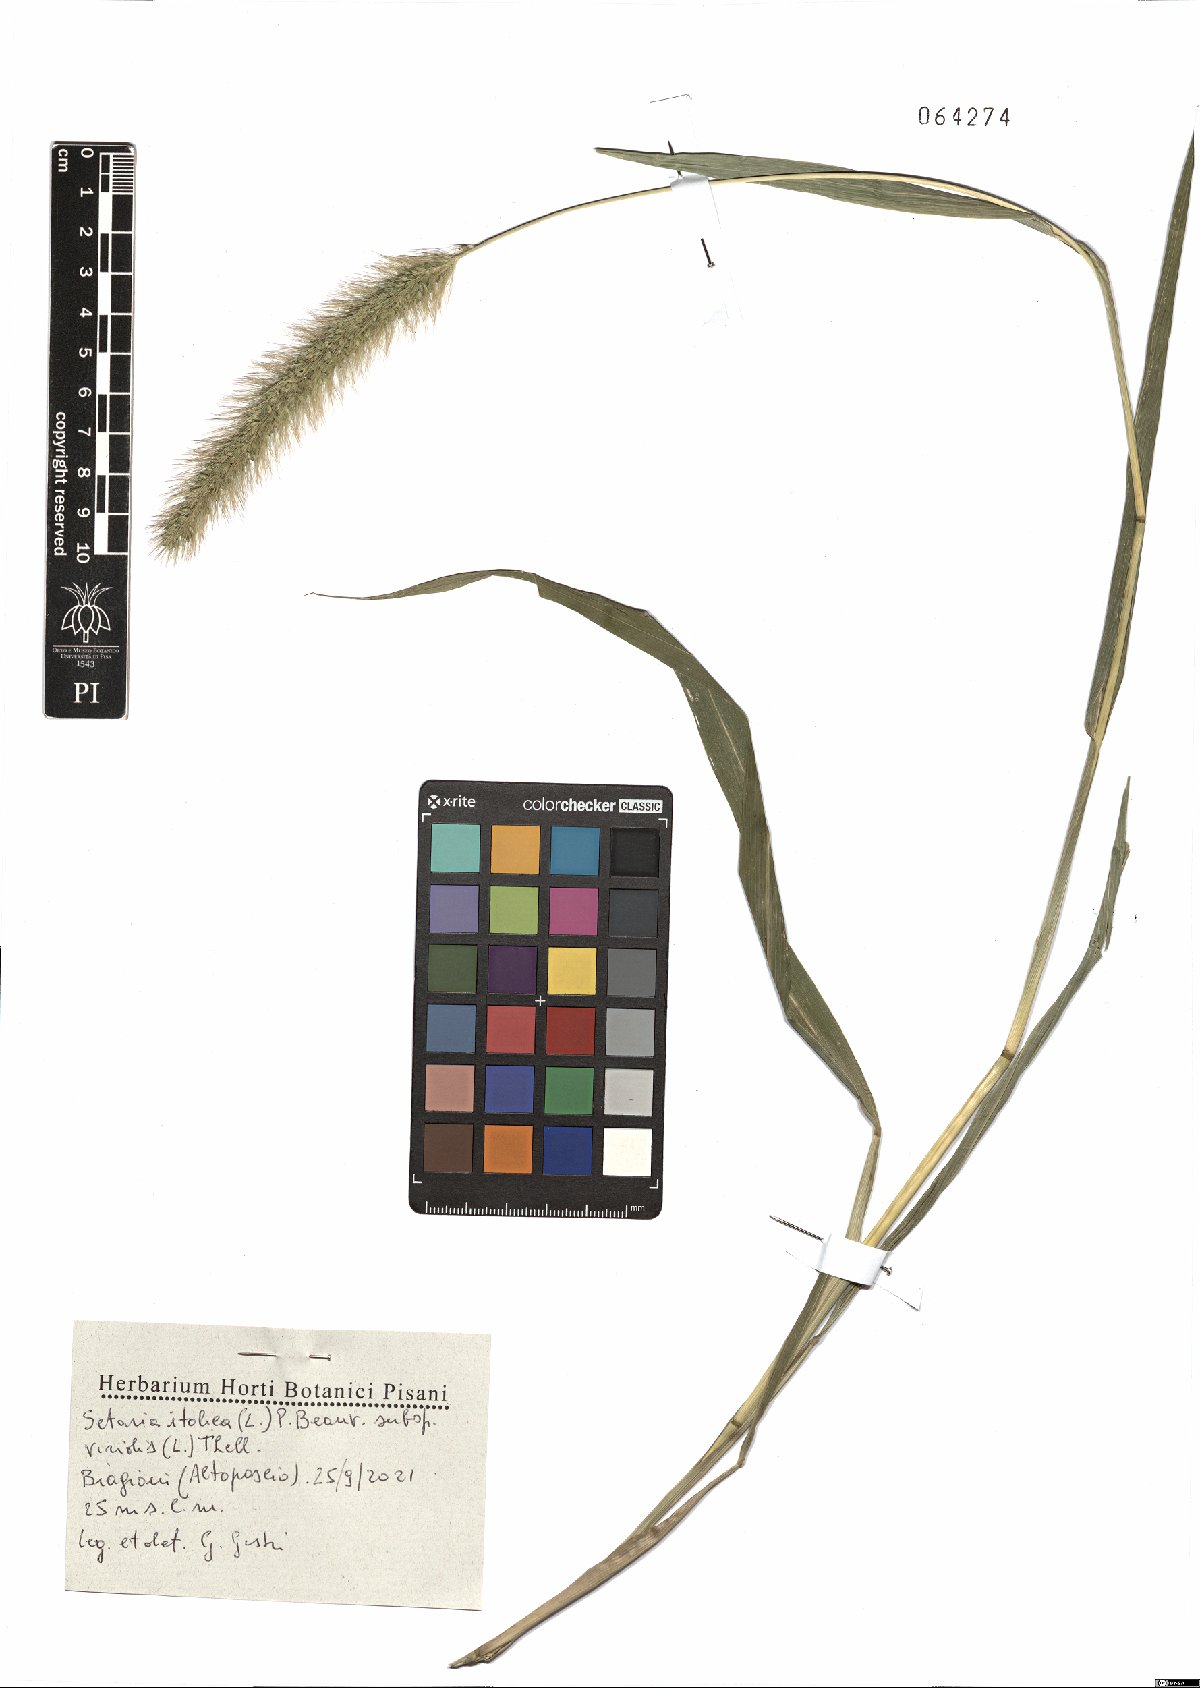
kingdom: Plantae
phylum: Tracheophyta
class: Liliopsida
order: Poales
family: Poaceae
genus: Setaria
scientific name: Setaria viridis
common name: Green bristlegrass
